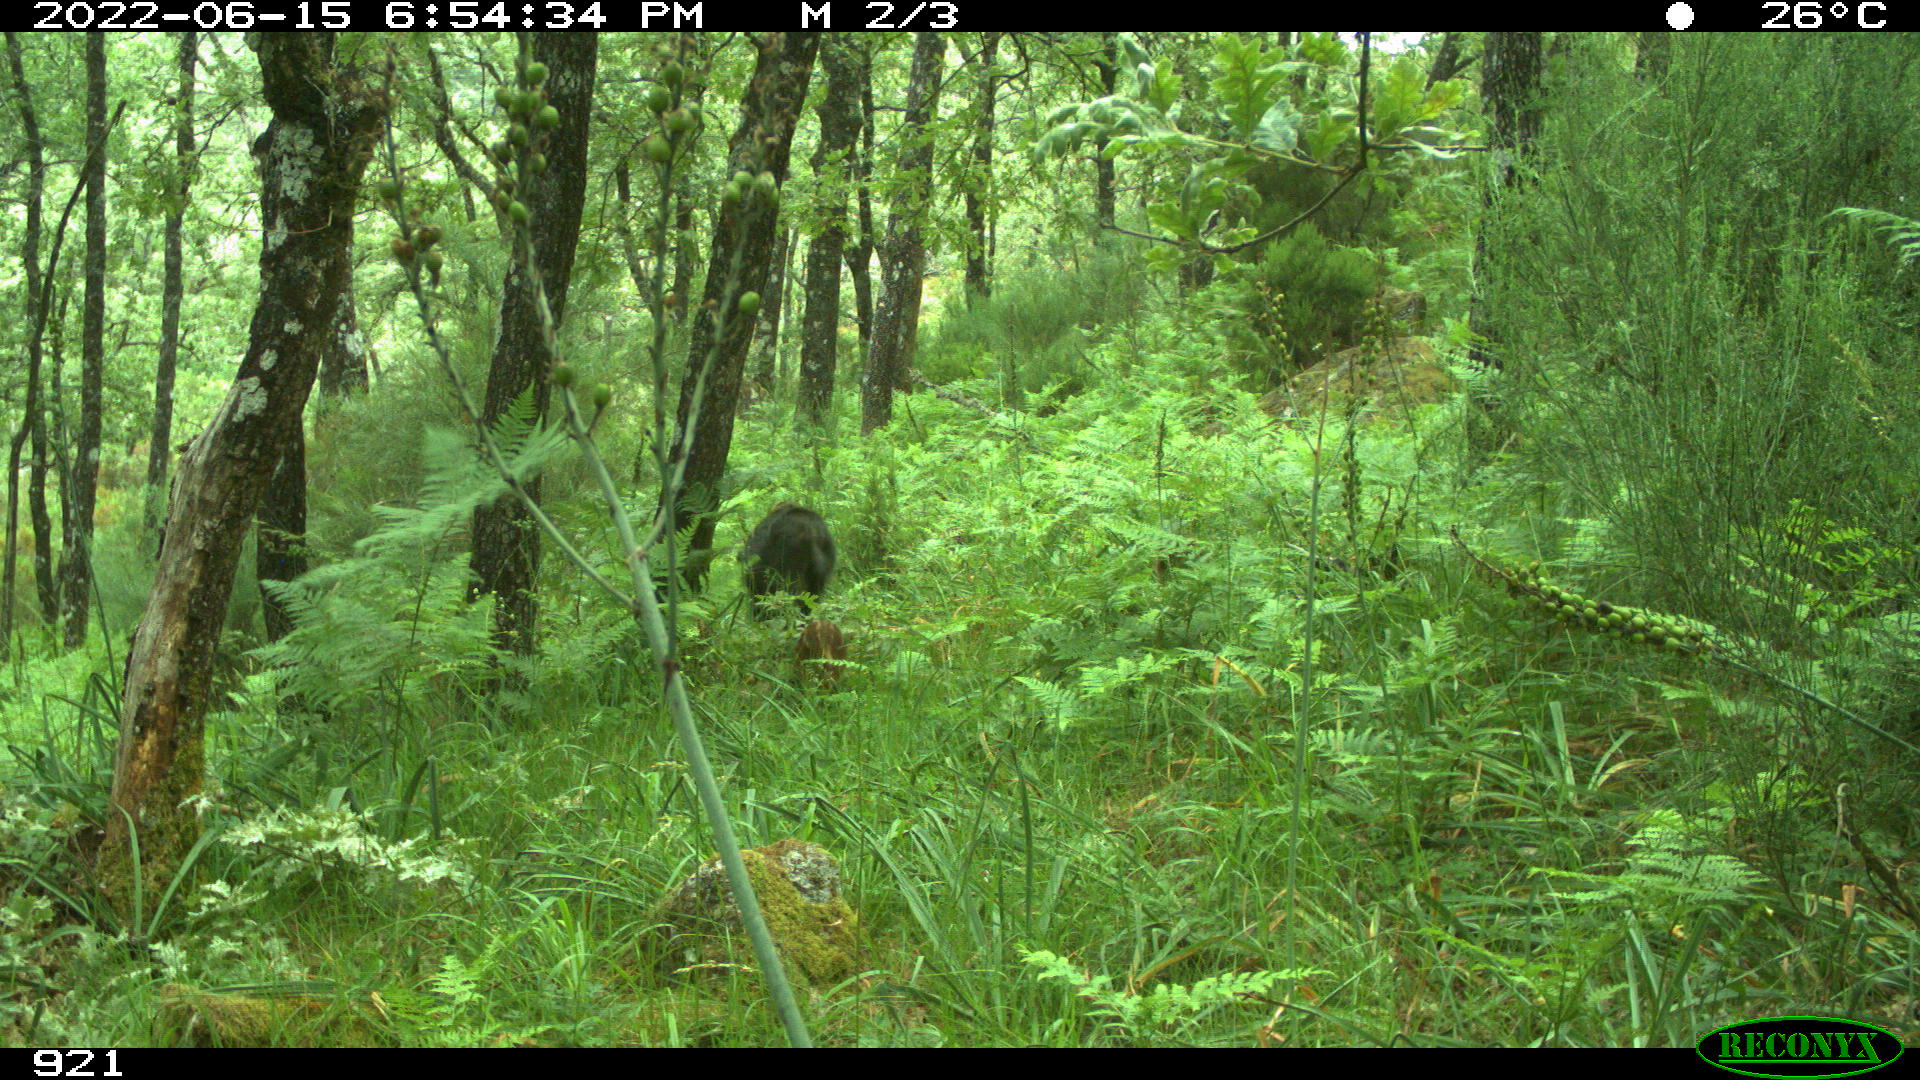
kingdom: Animalia
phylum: Chordata
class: Mammalia
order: Artiodactyla
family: Suidae
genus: Sus
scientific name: Sus scrofa
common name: Wild boar
